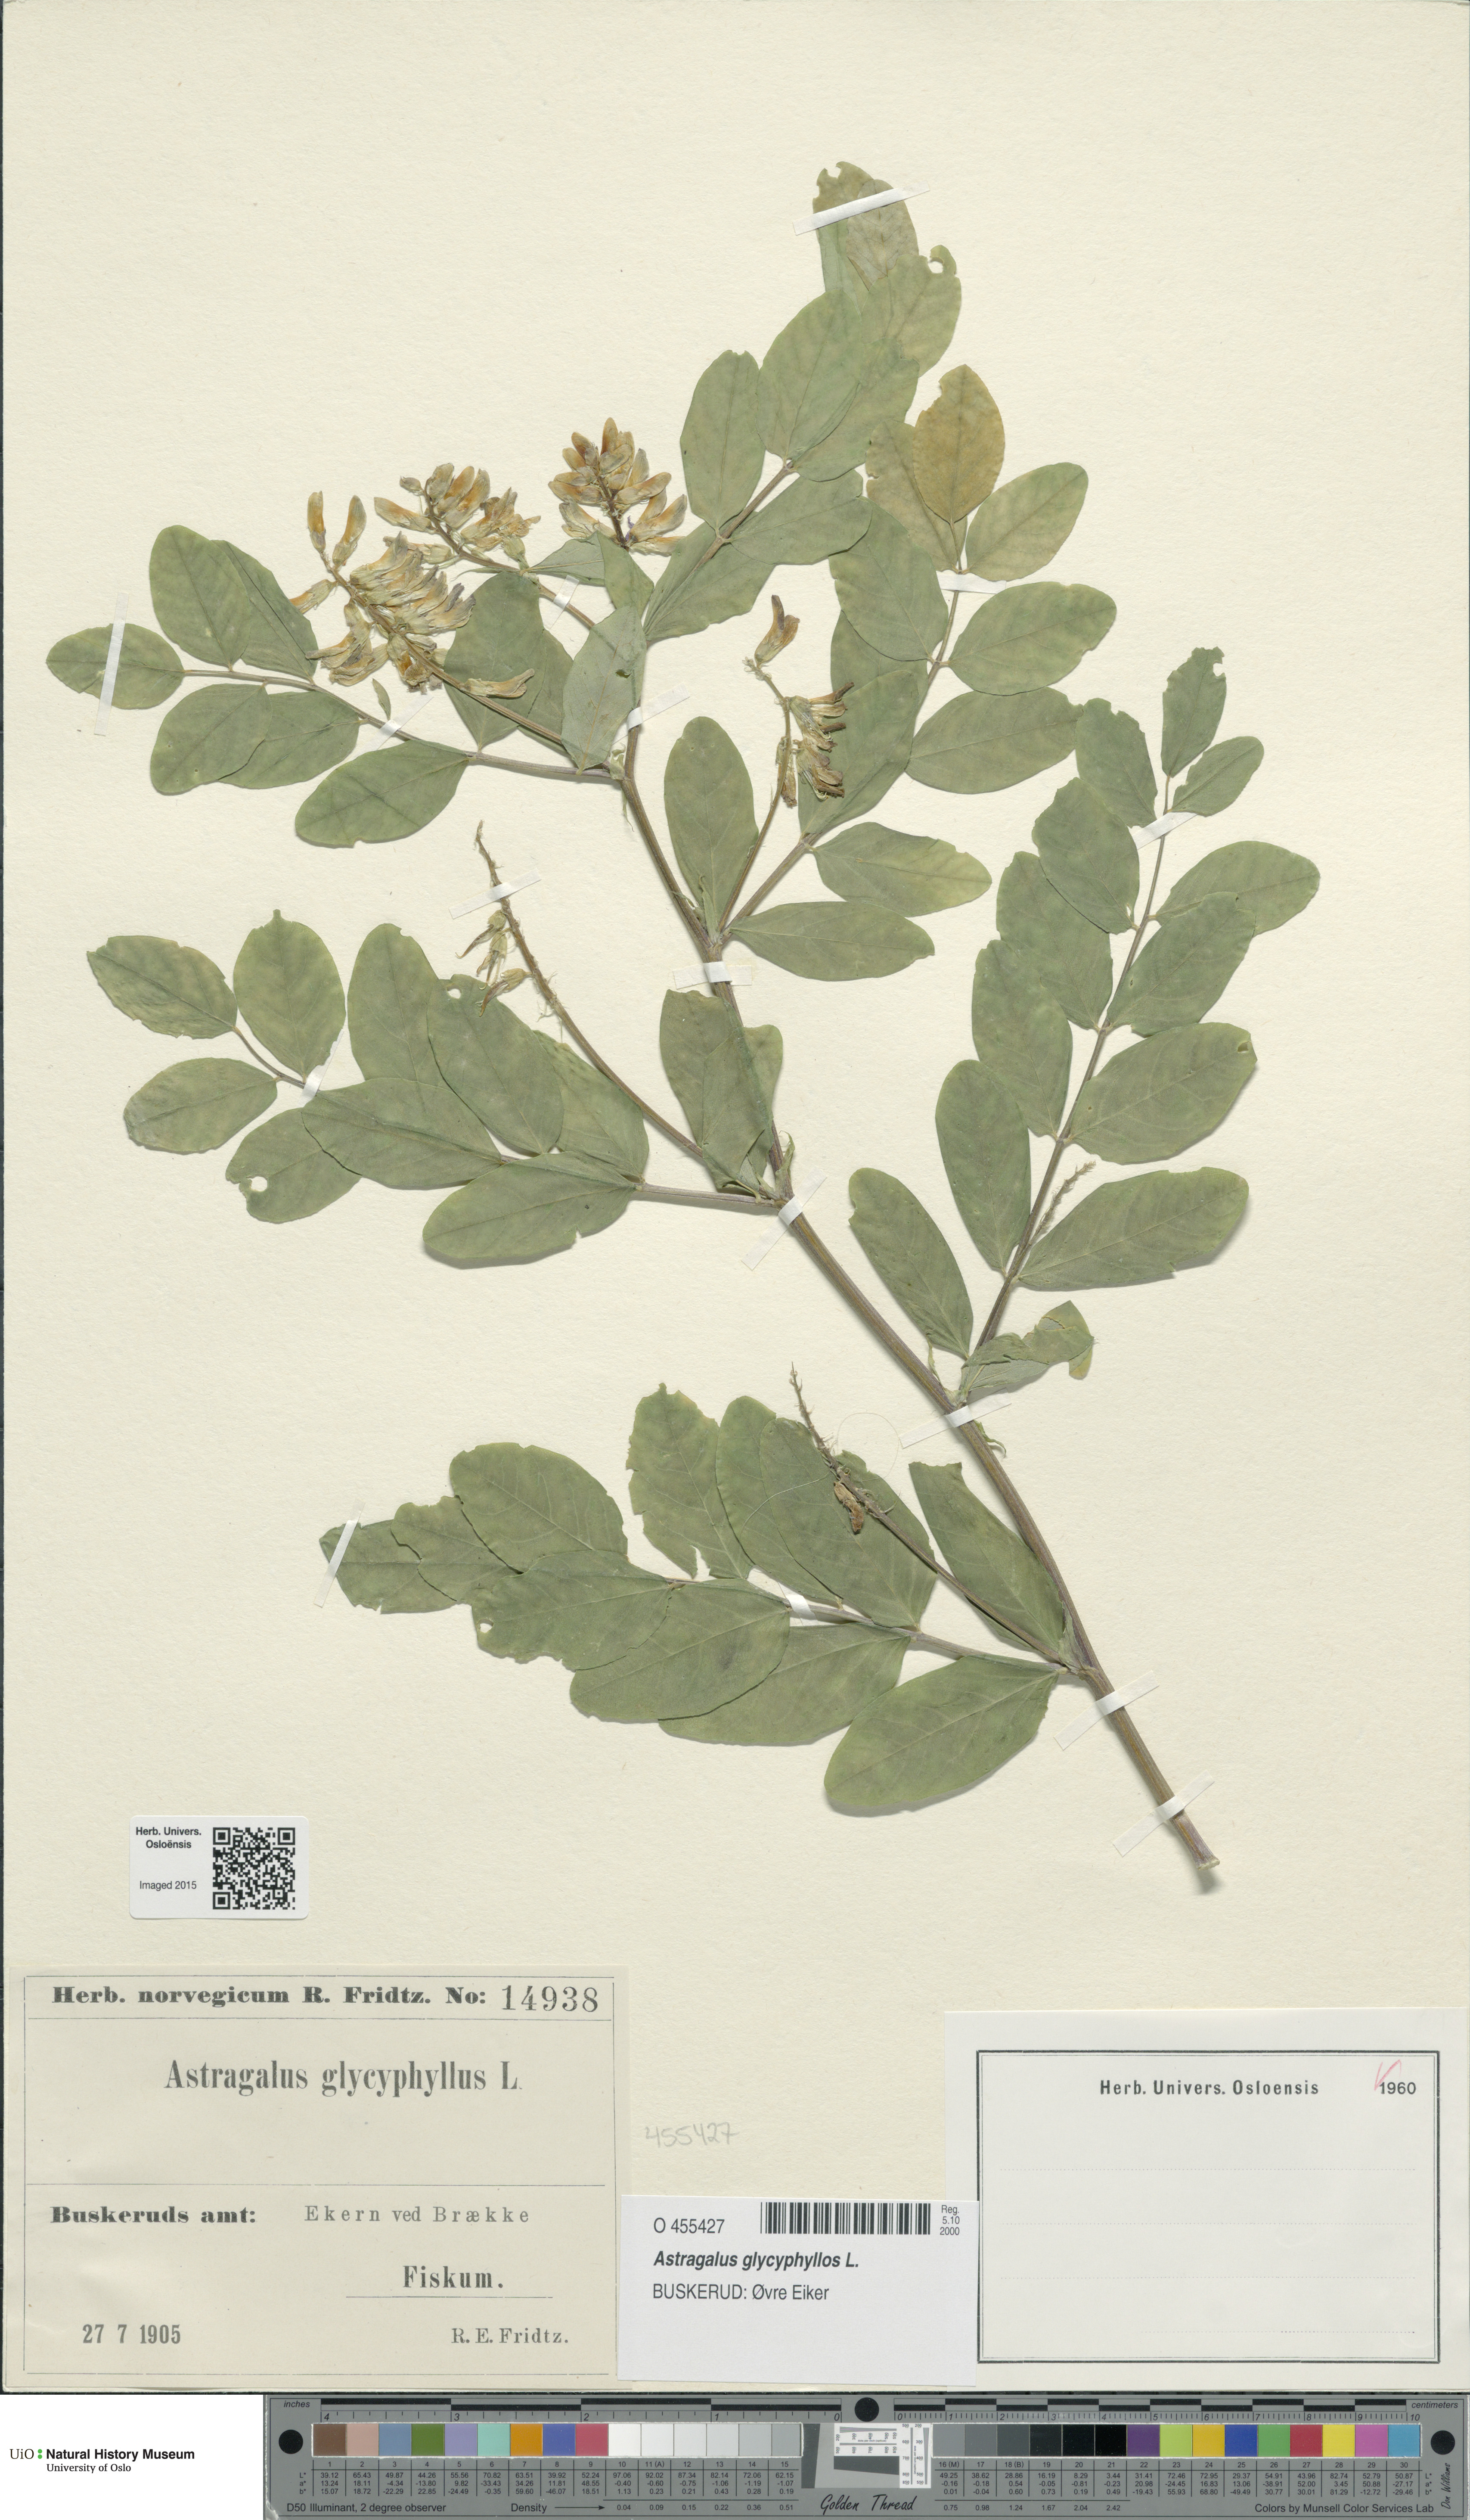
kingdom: Plantae
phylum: Tracheophyta
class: Magnoliopsida
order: Fabales
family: Fabaceae
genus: Astragalus
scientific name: Astragalus glycyphyllos
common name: Wild liquorice
